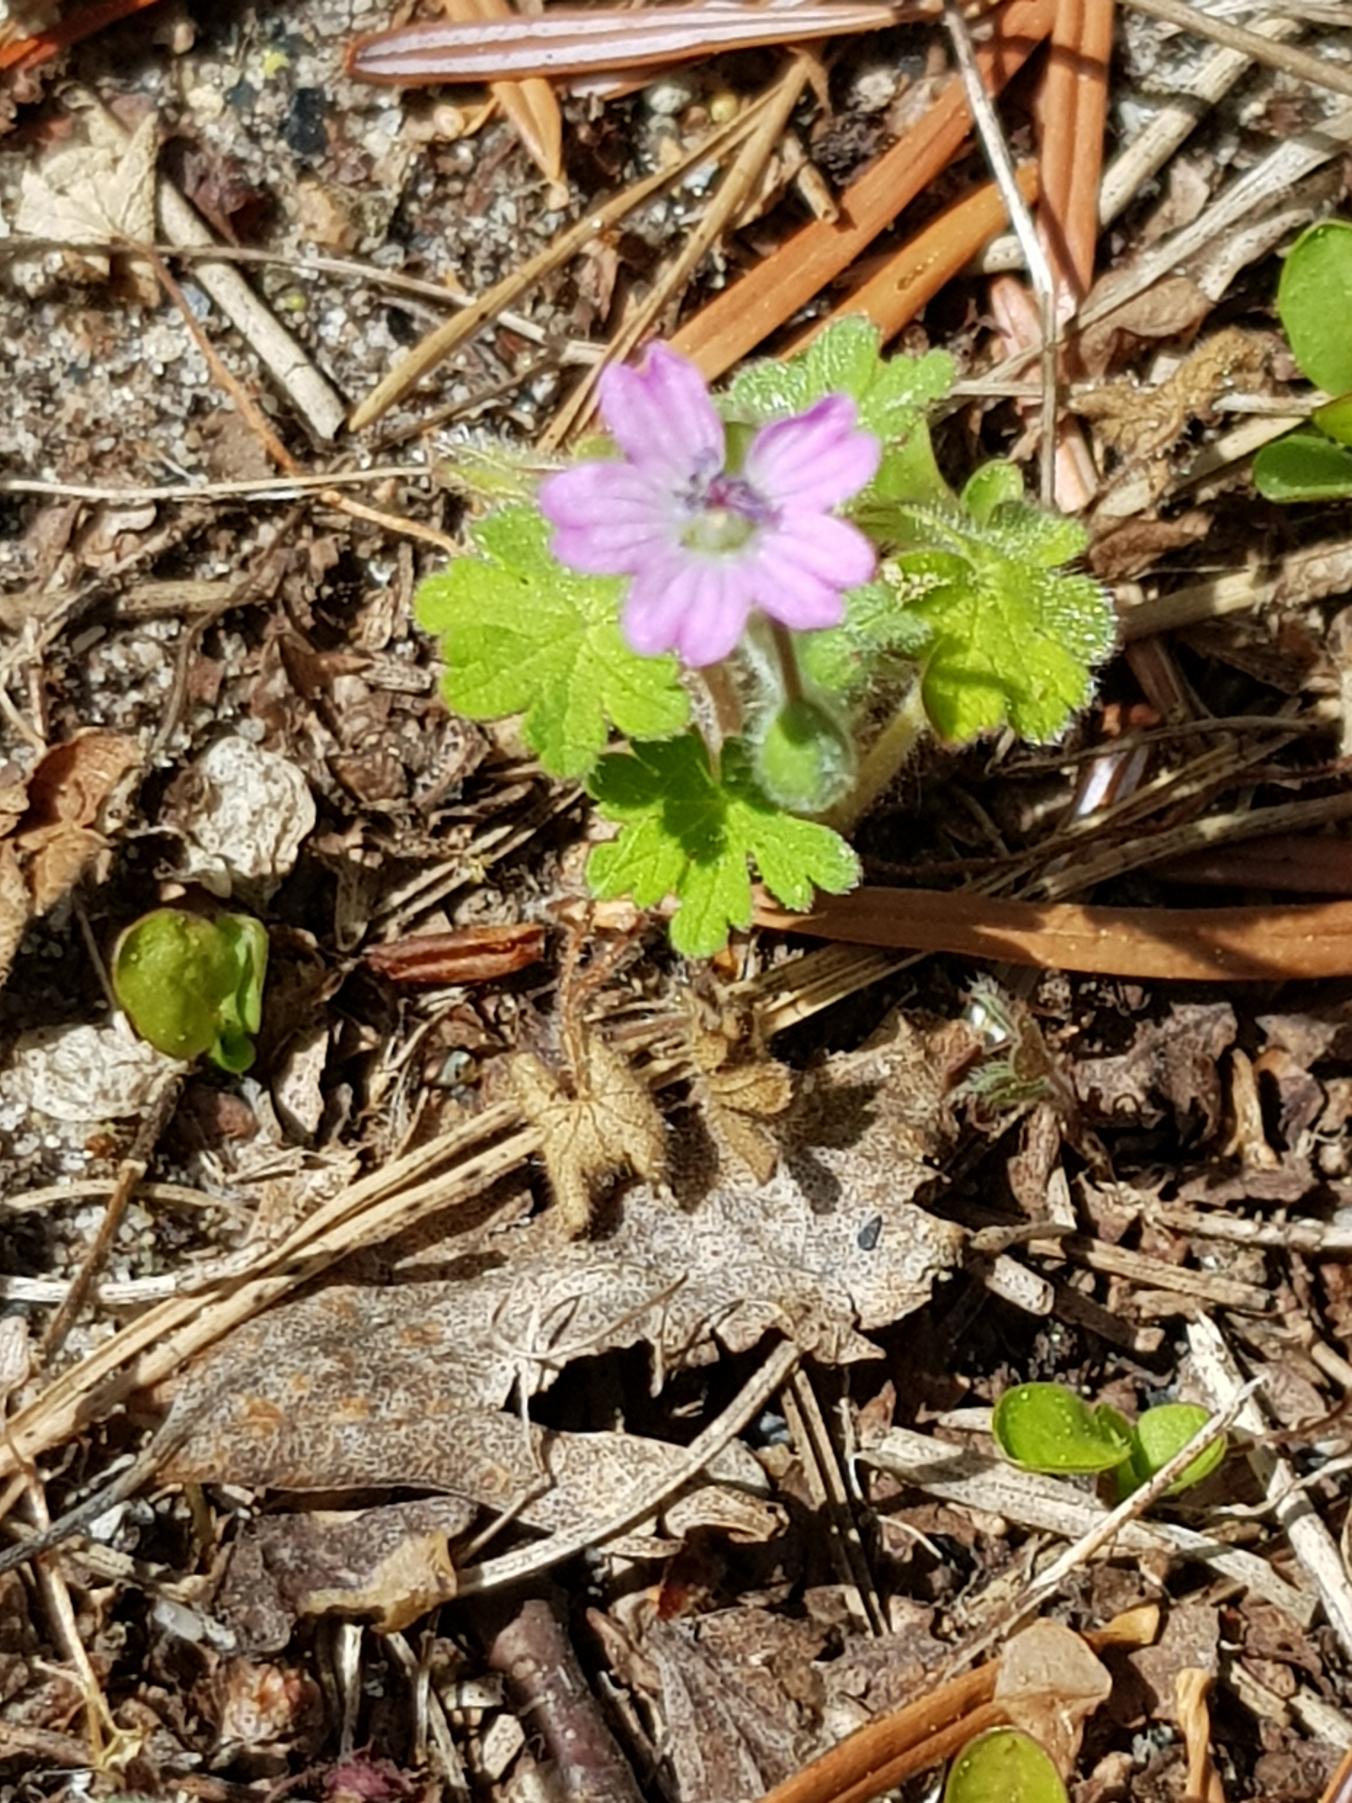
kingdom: Plantae
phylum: Tracheophyta
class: Magnoliopsida
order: Geraniales
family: Geraniaceae
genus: Geranium
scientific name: Geranium molle
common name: Blød storkenæb
